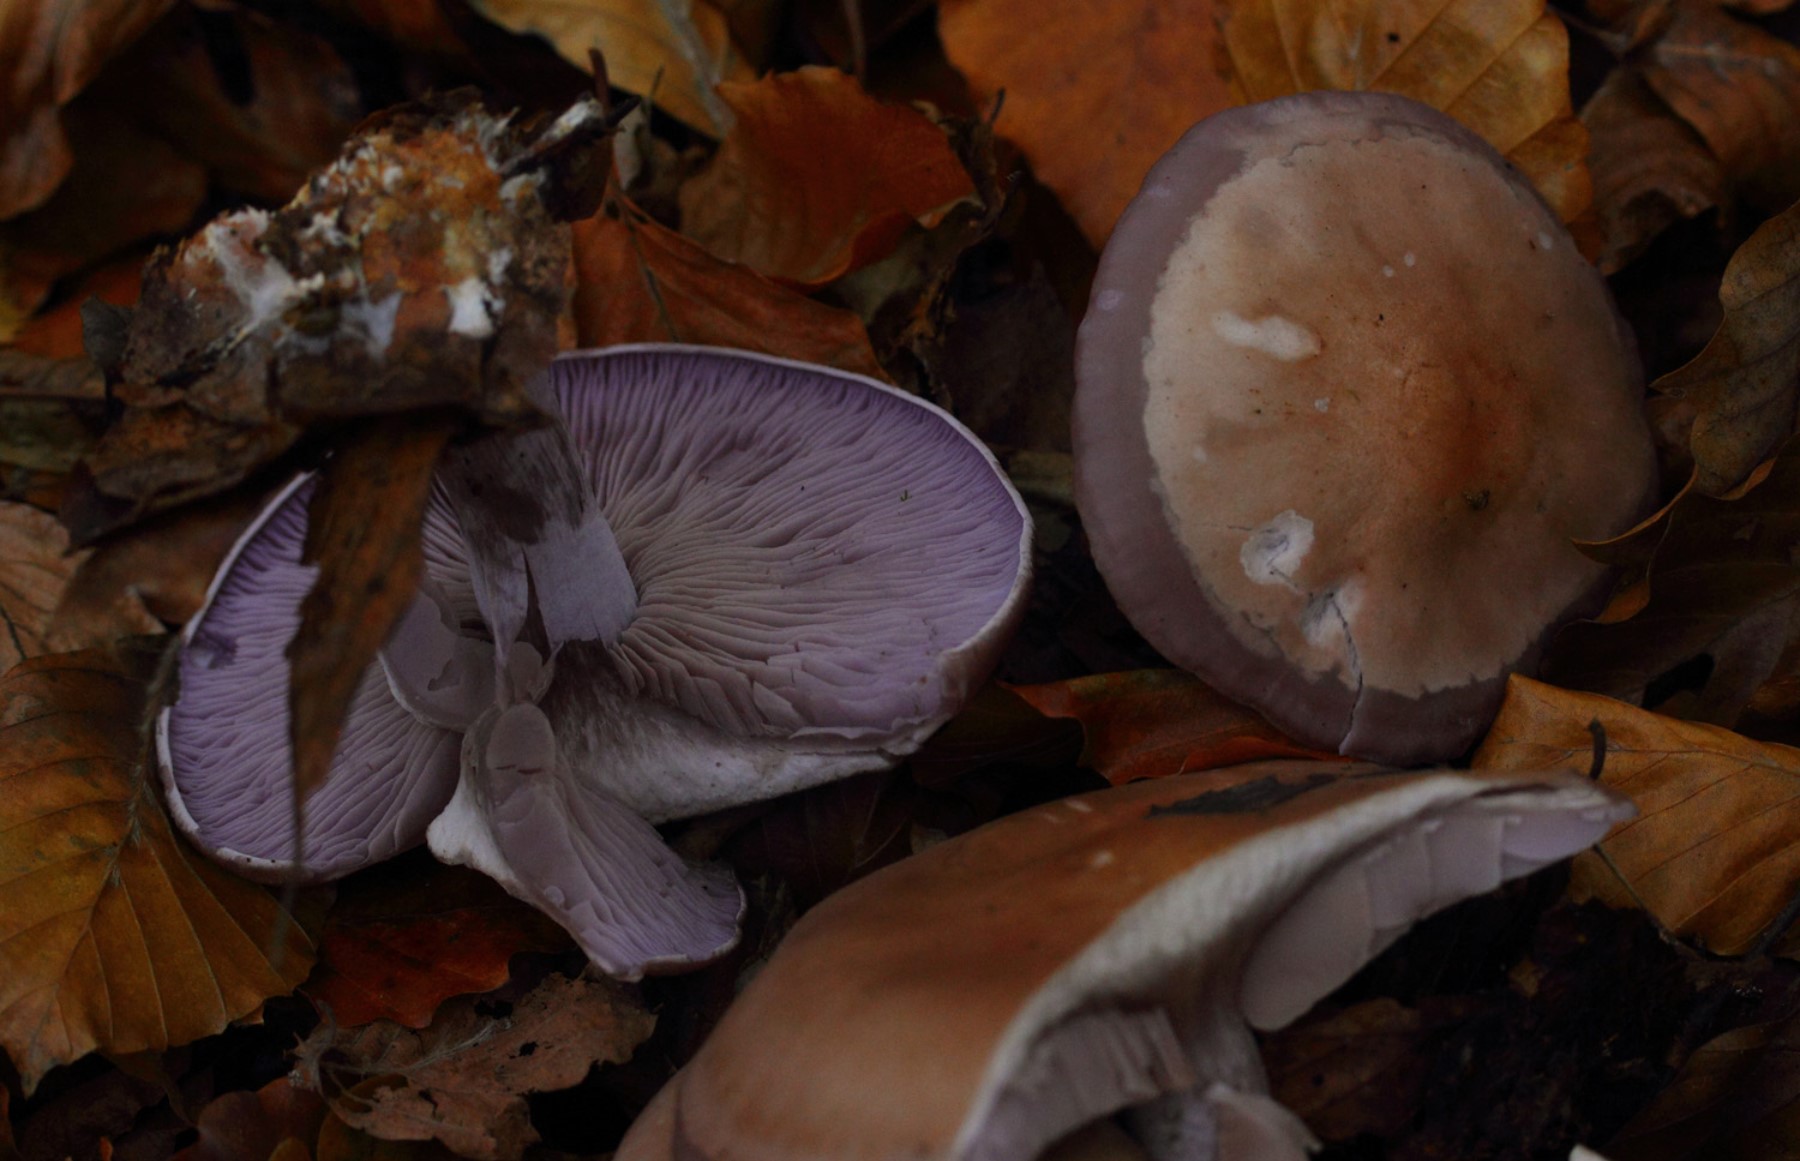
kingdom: Fungi
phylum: Basidiomycota
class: Agaricomycetes
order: Agaricales
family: Tricholomataceae
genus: Lepista
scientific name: Lepista nuda
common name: violet hekseringshat
